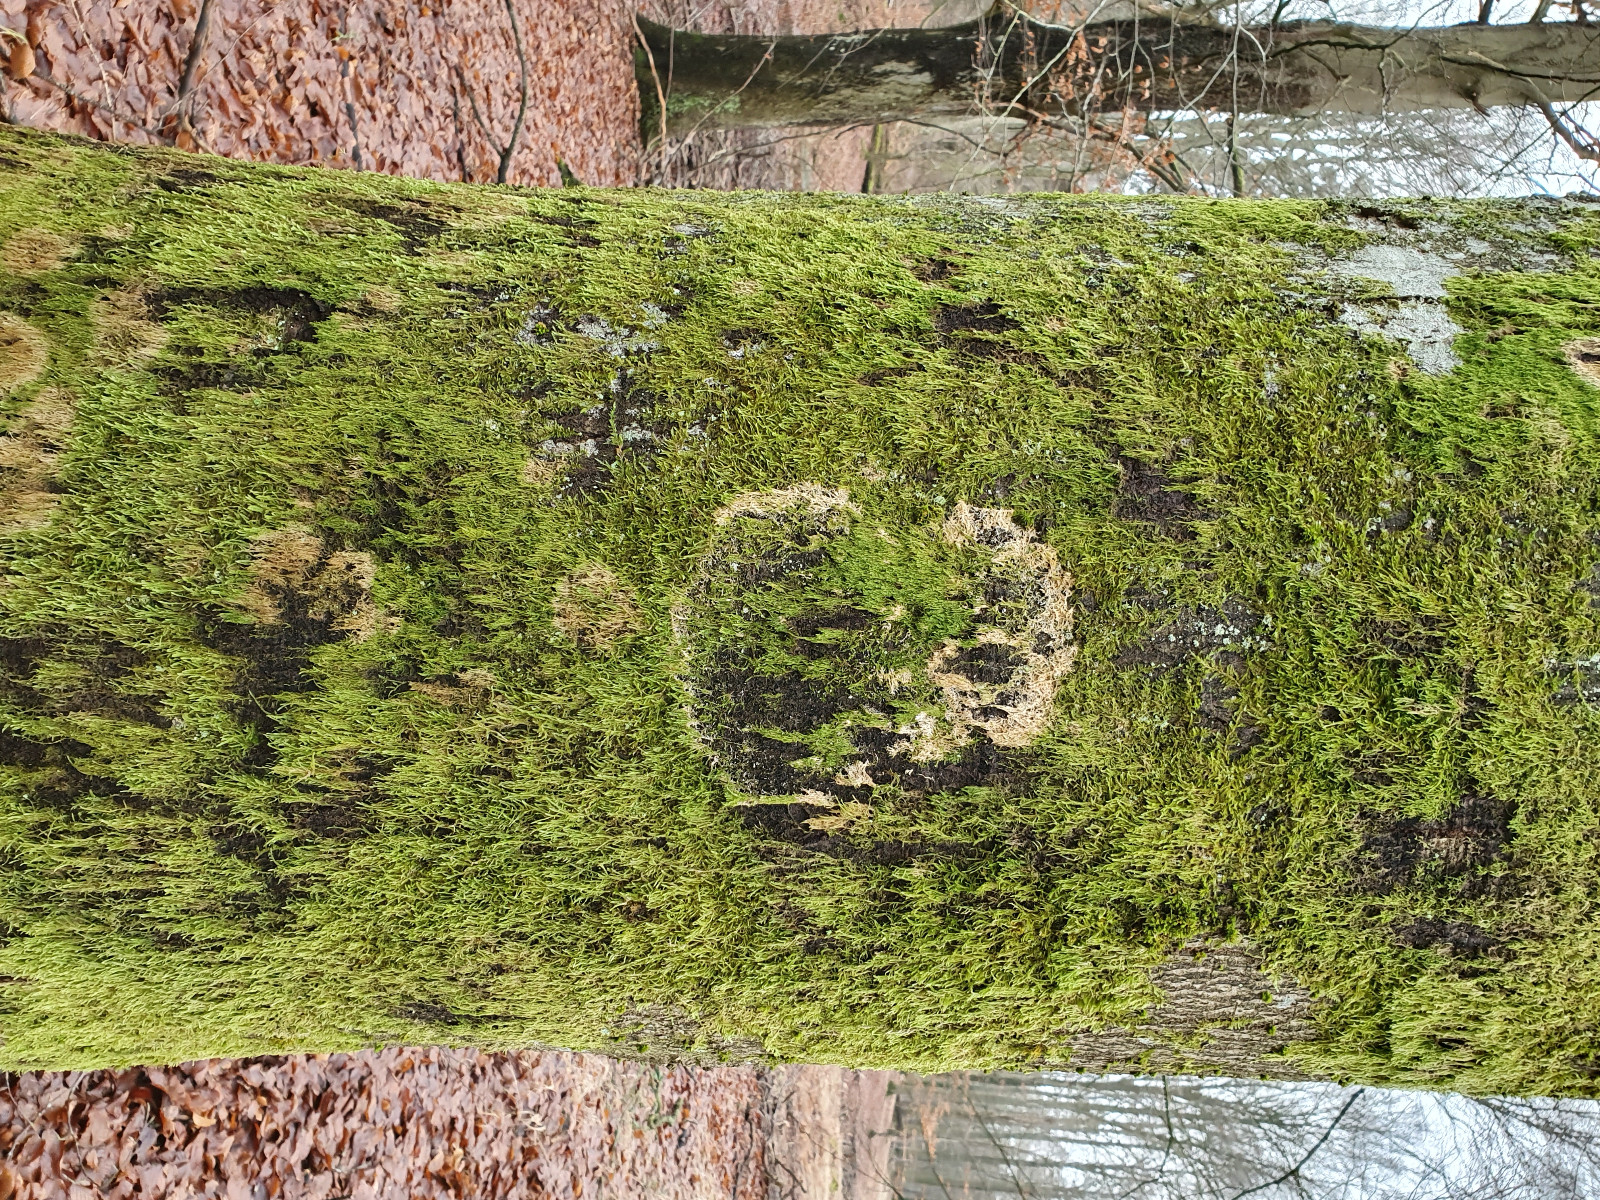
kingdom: Fungi
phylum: Basidiomycota
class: Agaricomycetes
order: Agaricales
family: Chromocyphellaceae
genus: Chromocyphella
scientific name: Chromocyphella muscicola
